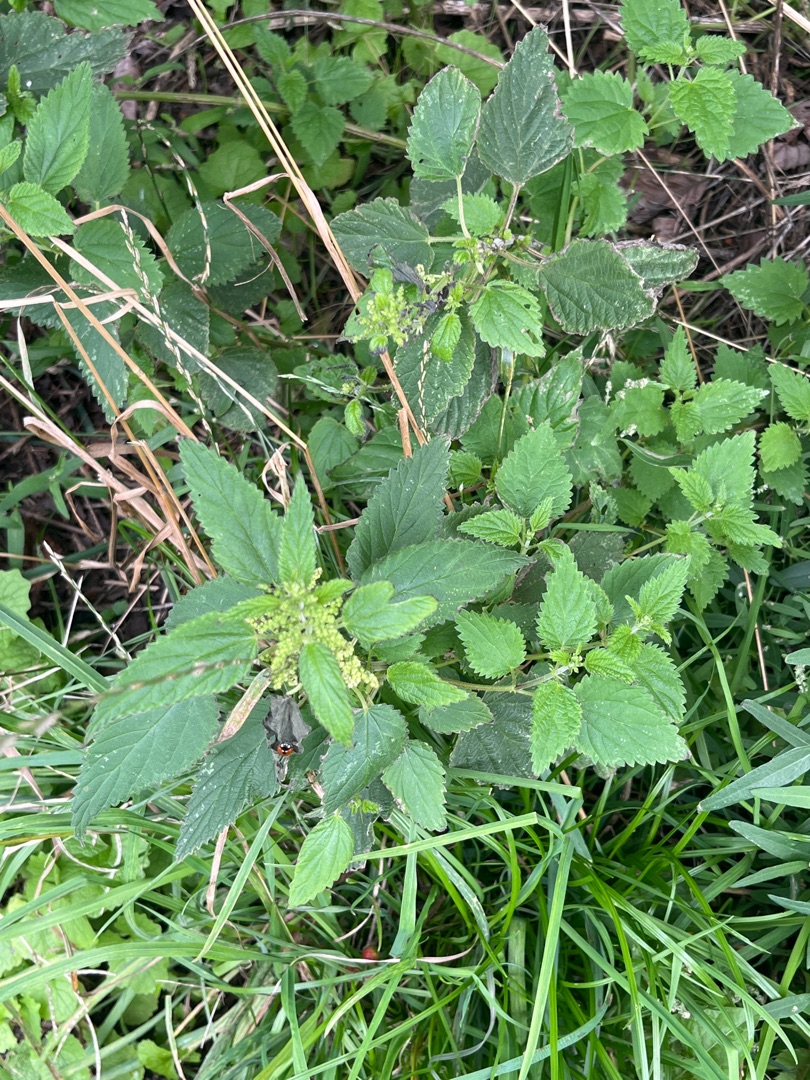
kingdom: Plantae
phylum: Tracheophyta
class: Magnoliopsida
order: Rosales
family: Urticaceae
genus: Urtica
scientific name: Urtica dioica
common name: Stor nælde
